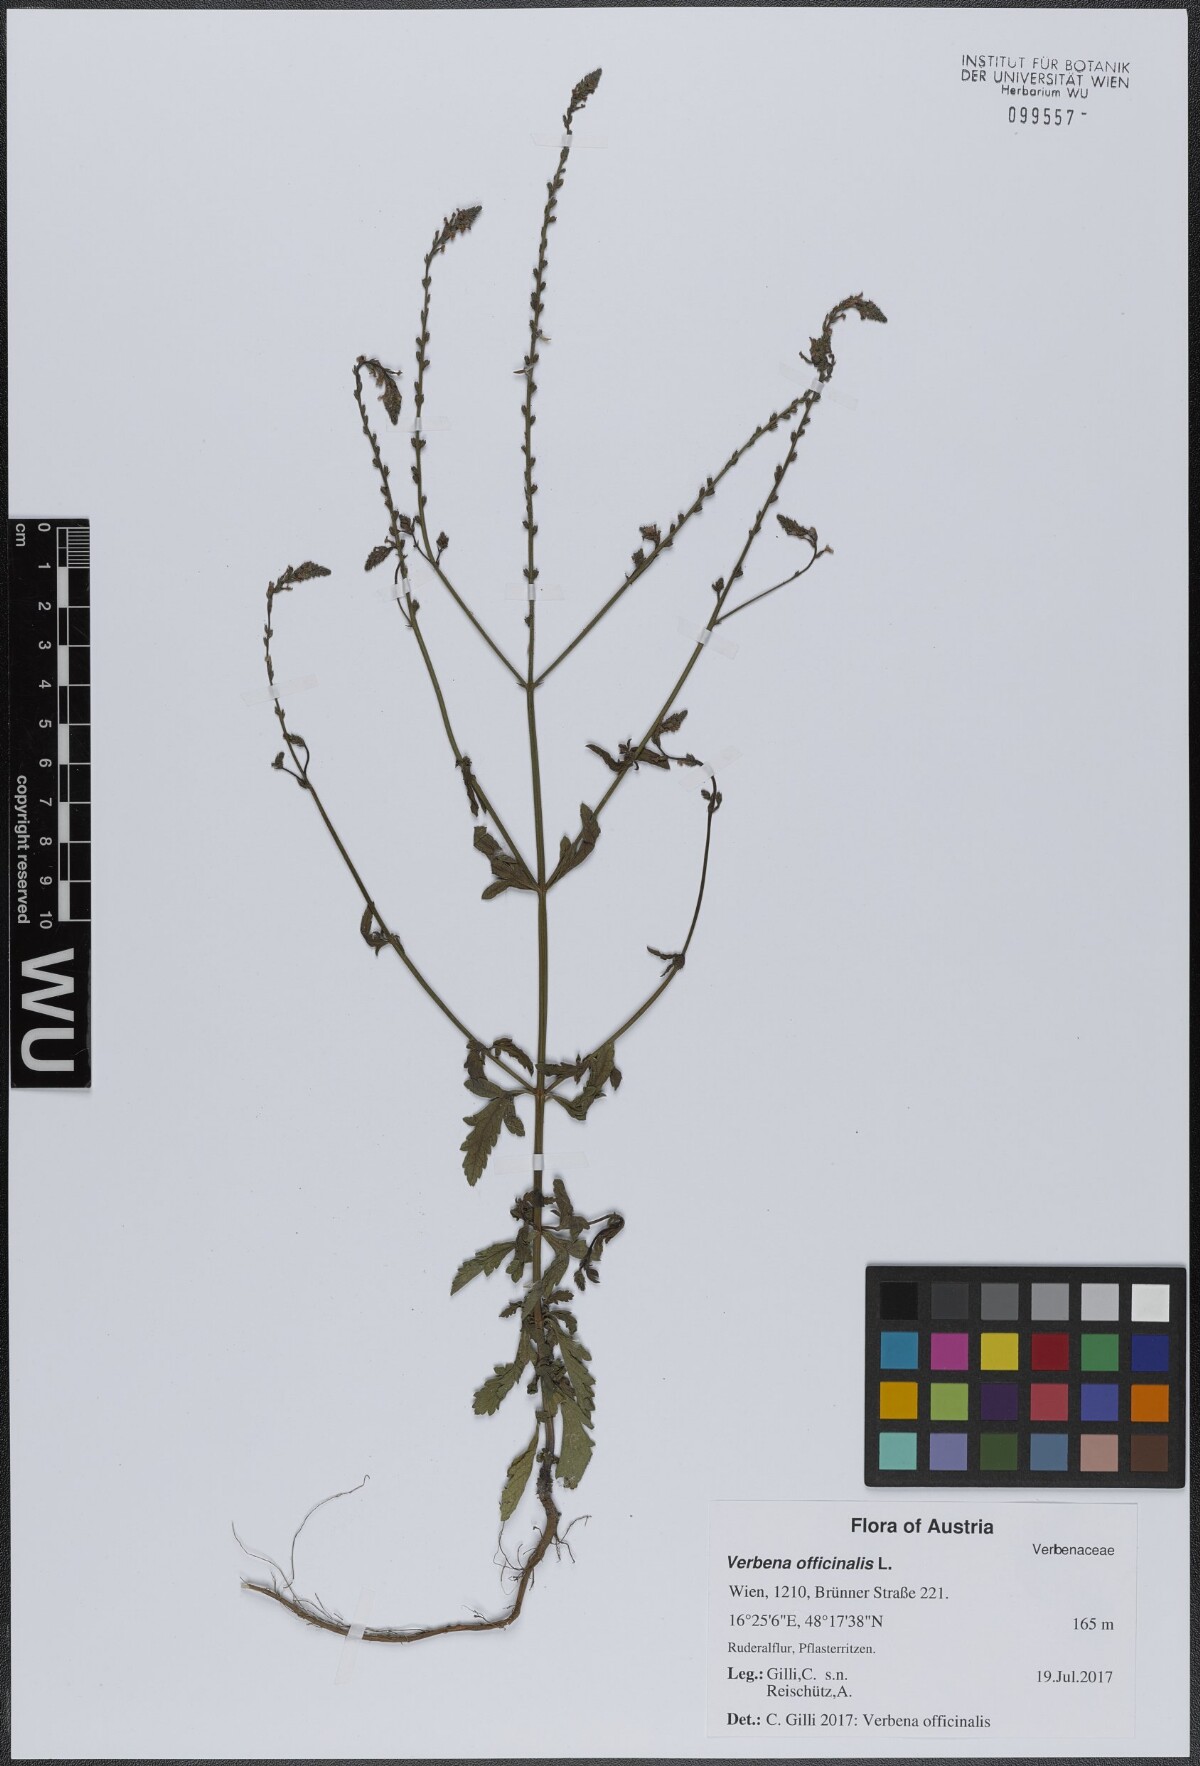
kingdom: Plantae
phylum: Tracheophyta
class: Magnoliopsida
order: Lamiales
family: Verbenaceae
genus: Verbena
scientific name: Verbena officinalis
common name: Vervain
